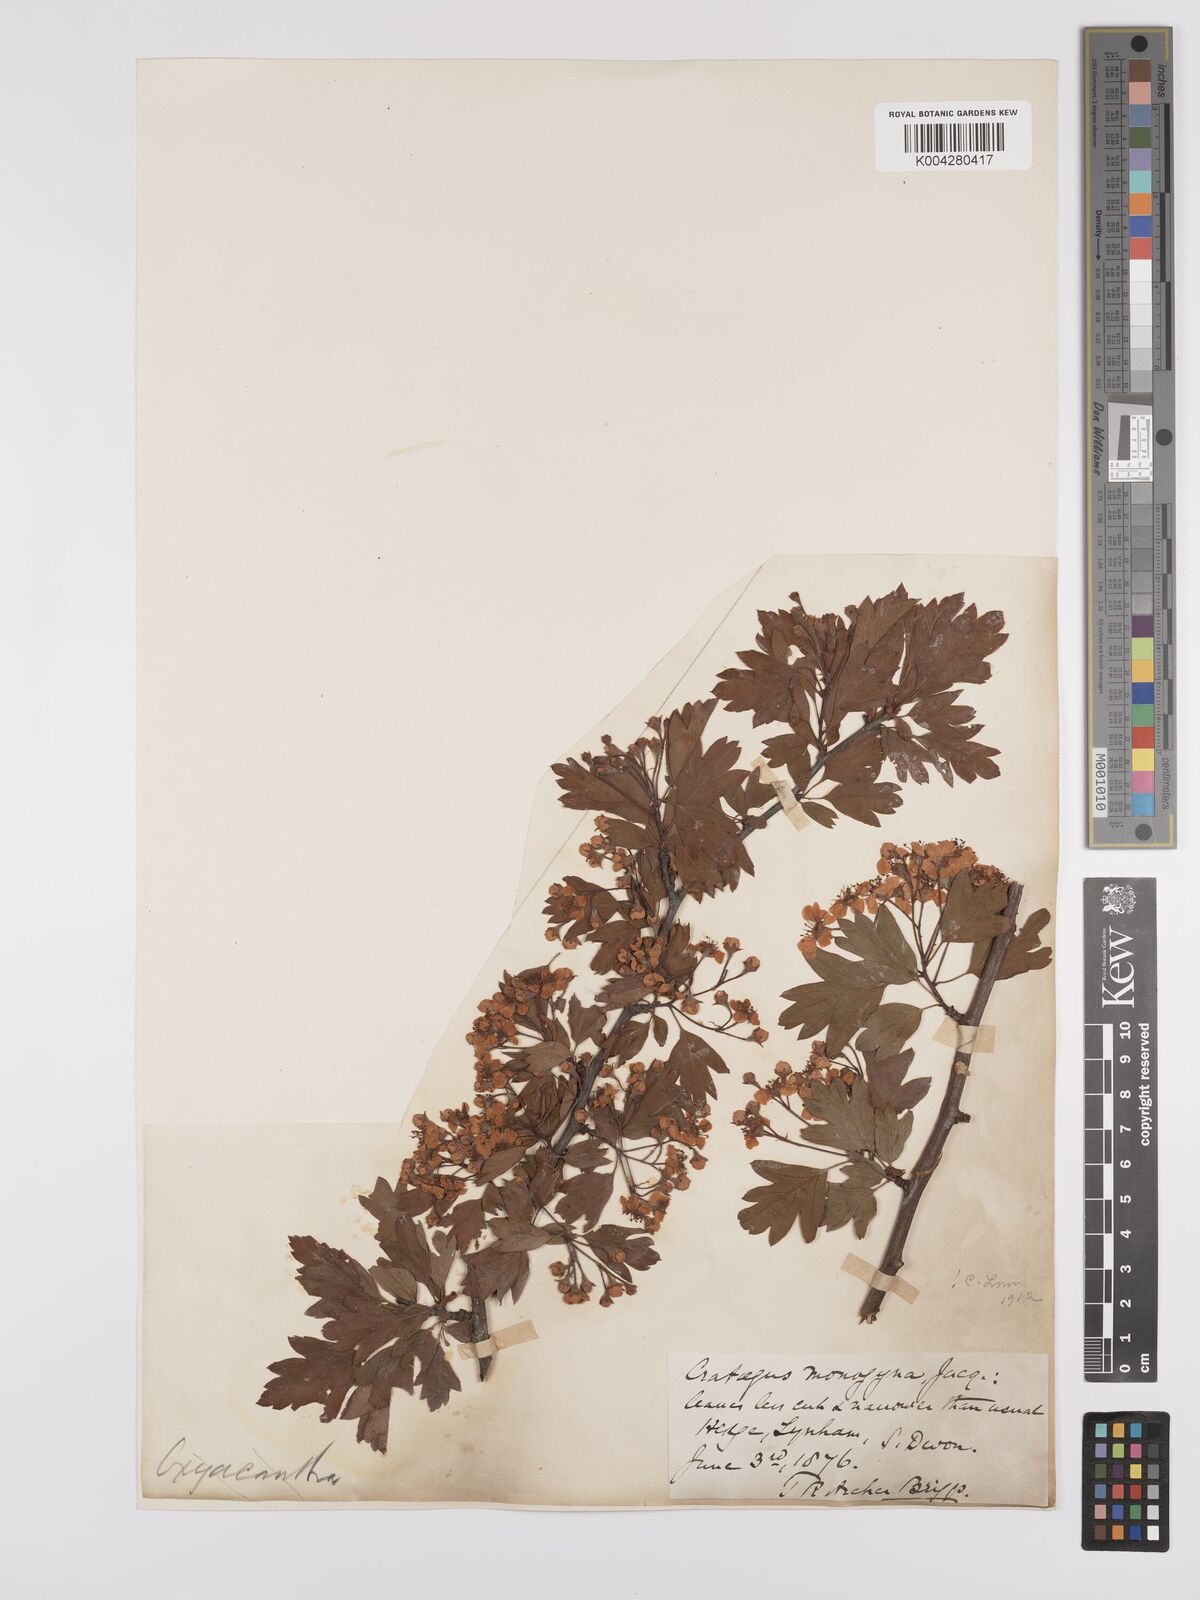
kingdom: Plantae
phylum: Tracheophyta
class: Magnoliopsida
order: Rosales
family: Rosaceae
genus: Crataegus
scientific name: Crataegus monogyna
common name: Hawthorn
